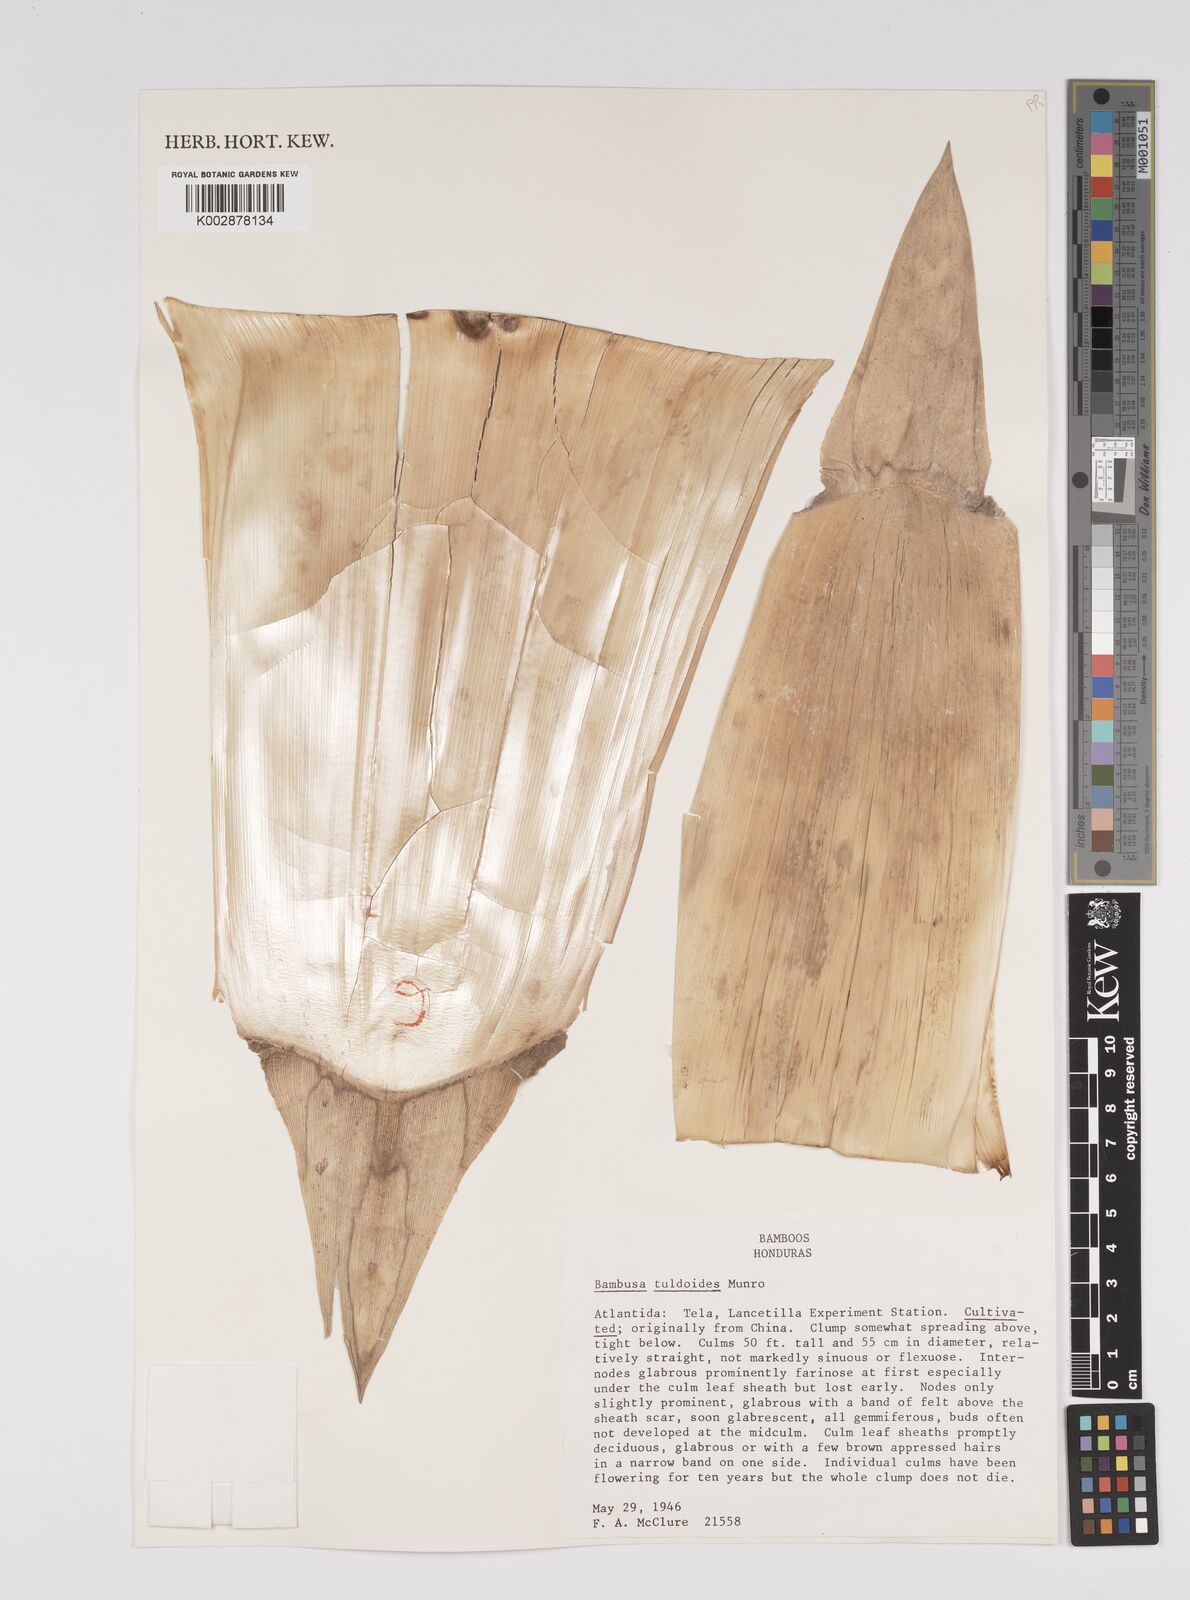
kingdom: Plantae
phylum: Tracheophyta
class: Liliopsida
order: Poales
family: Poaceae
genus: Bambusa
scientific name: Bambusa tuldoides
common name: Verdant bamboo
